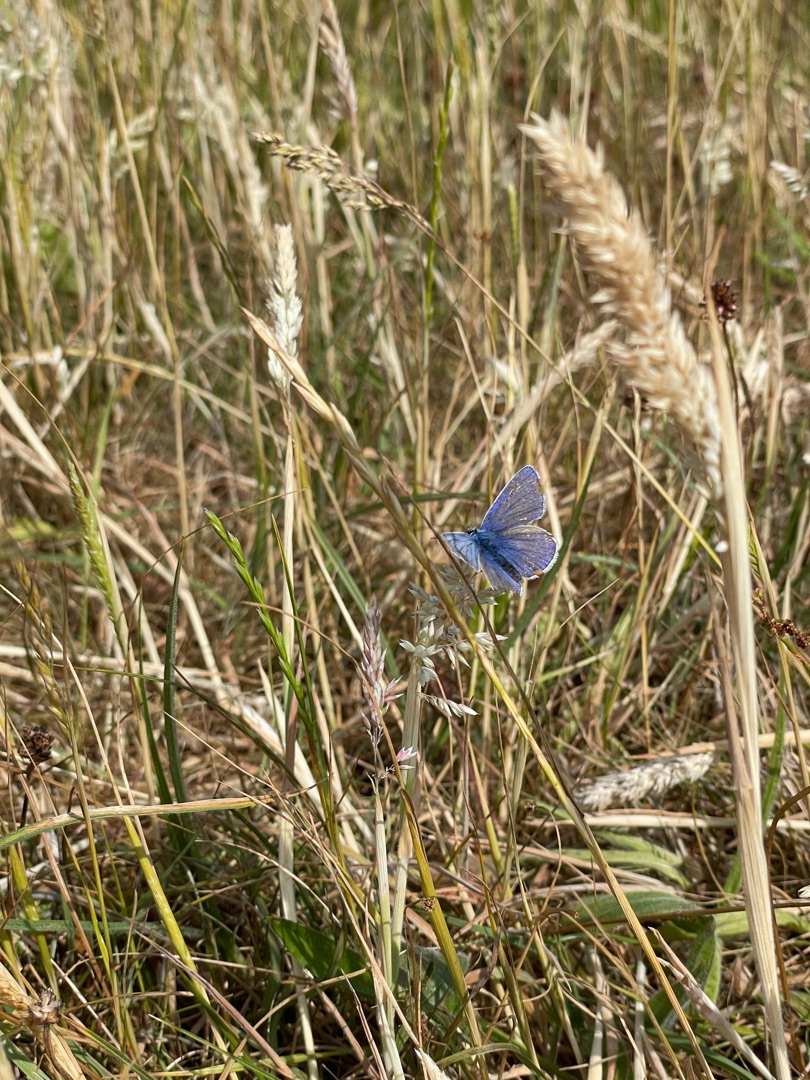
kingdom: Animalia
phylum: Arthropoda
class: Insecta
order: Lepidoptera
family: Lycaenidae
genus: Polyommatus
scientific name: Polyommatus icarus
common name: Almindelig blåfugl
